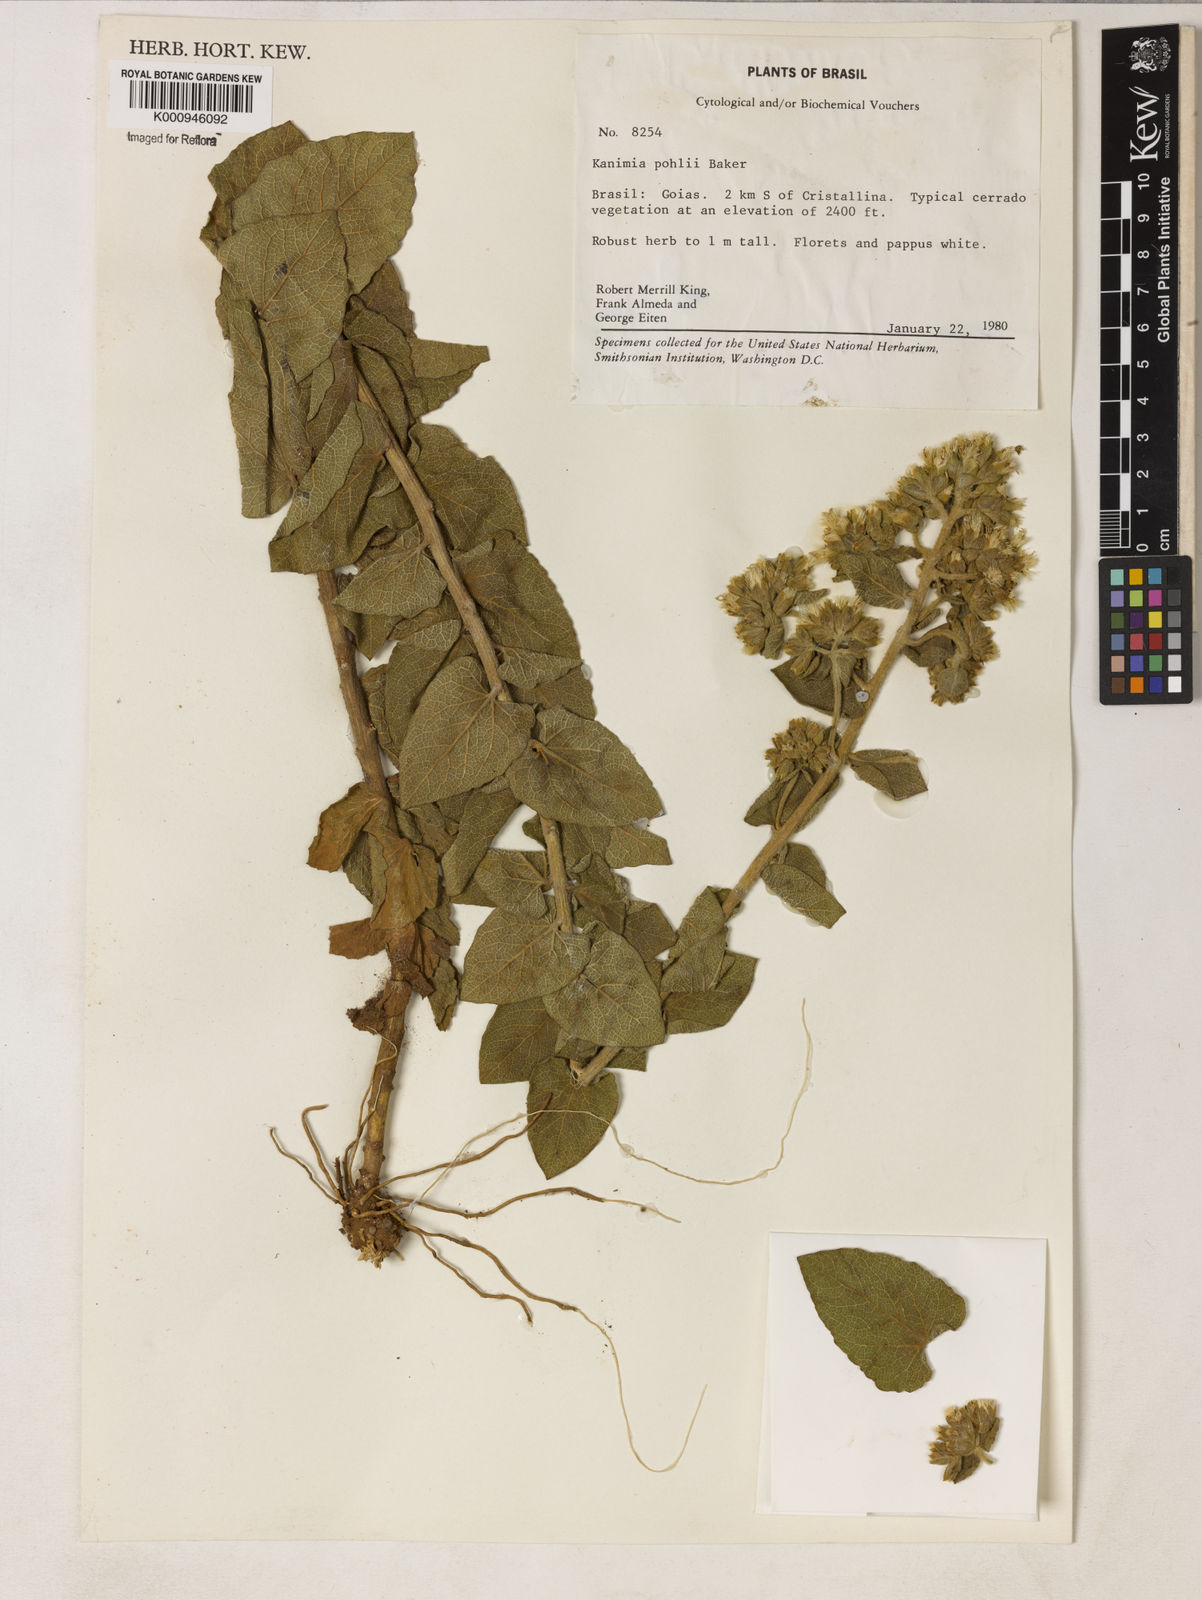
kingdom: Plantae
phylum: Tracheophyta
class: Magnoliopsida
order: Asterales
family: Asteraceae
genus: Mikania
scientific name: Mikania pohlii
